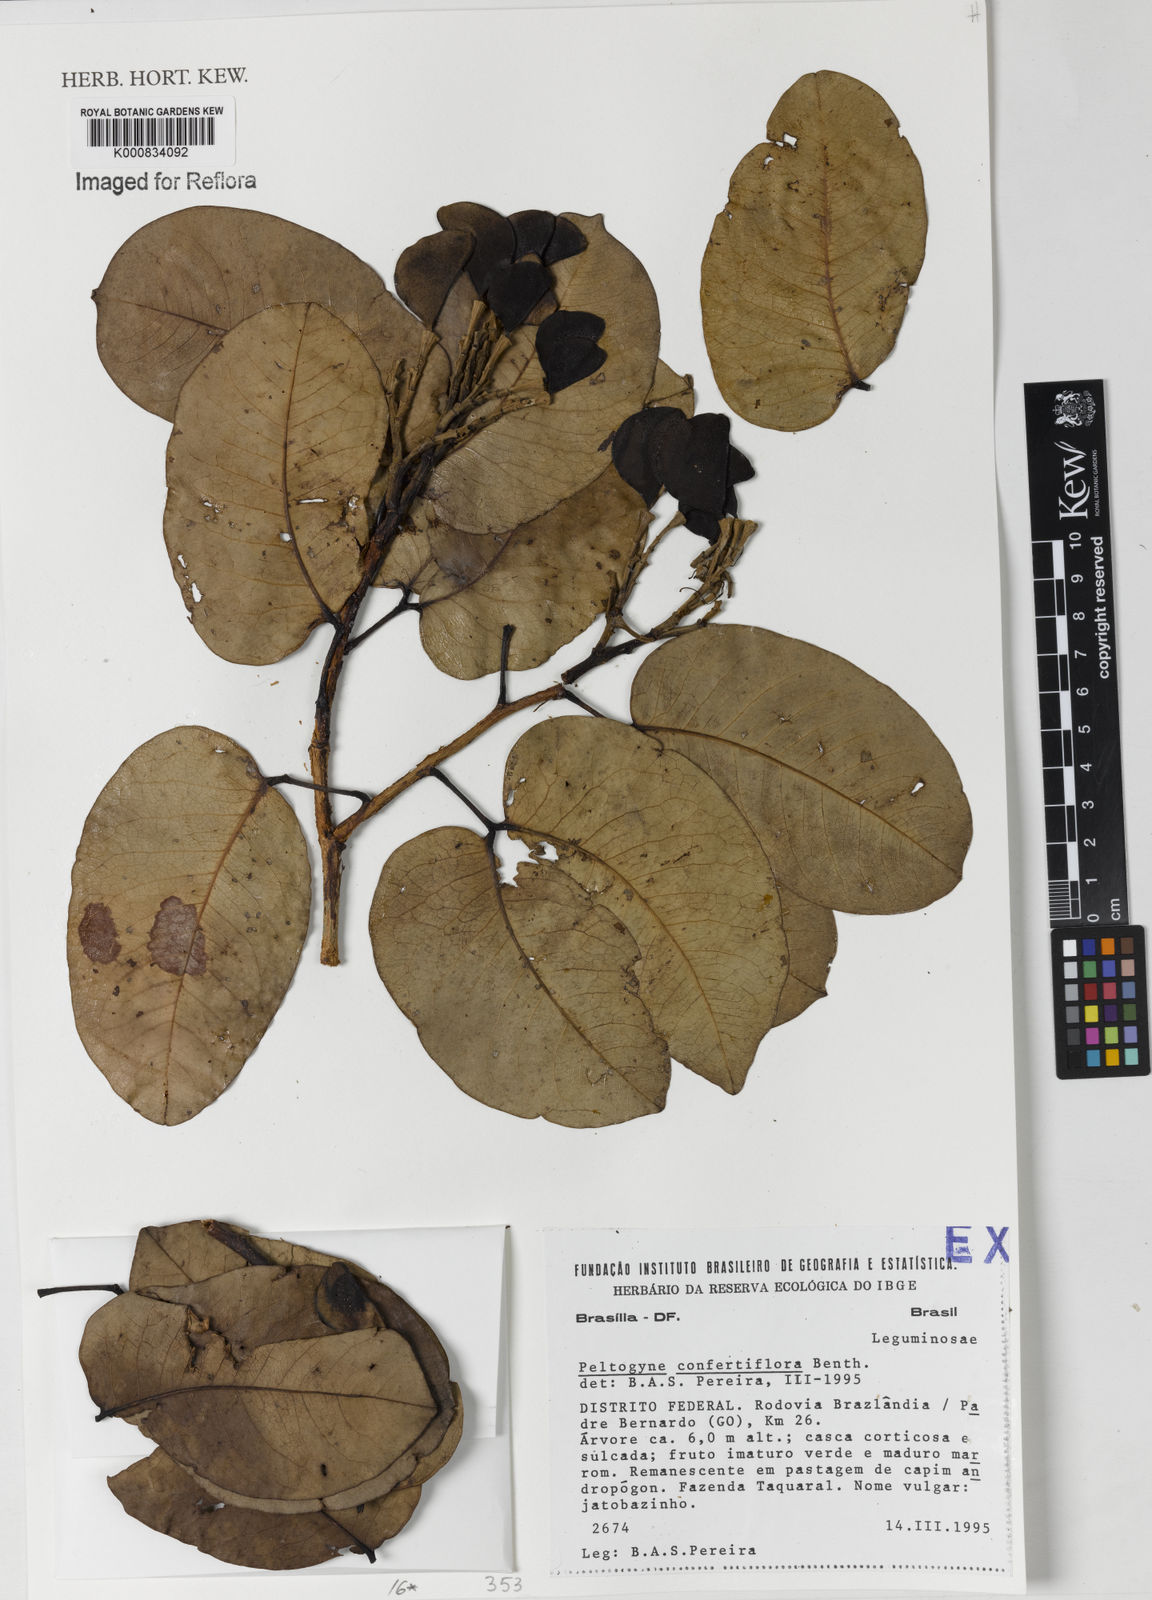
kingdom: Plantae
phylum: Tracheophyta
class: Magnoliopsida
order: Fabales
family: Fabaceae
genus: Peltogyne
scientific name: Peltogyne confertiflora
